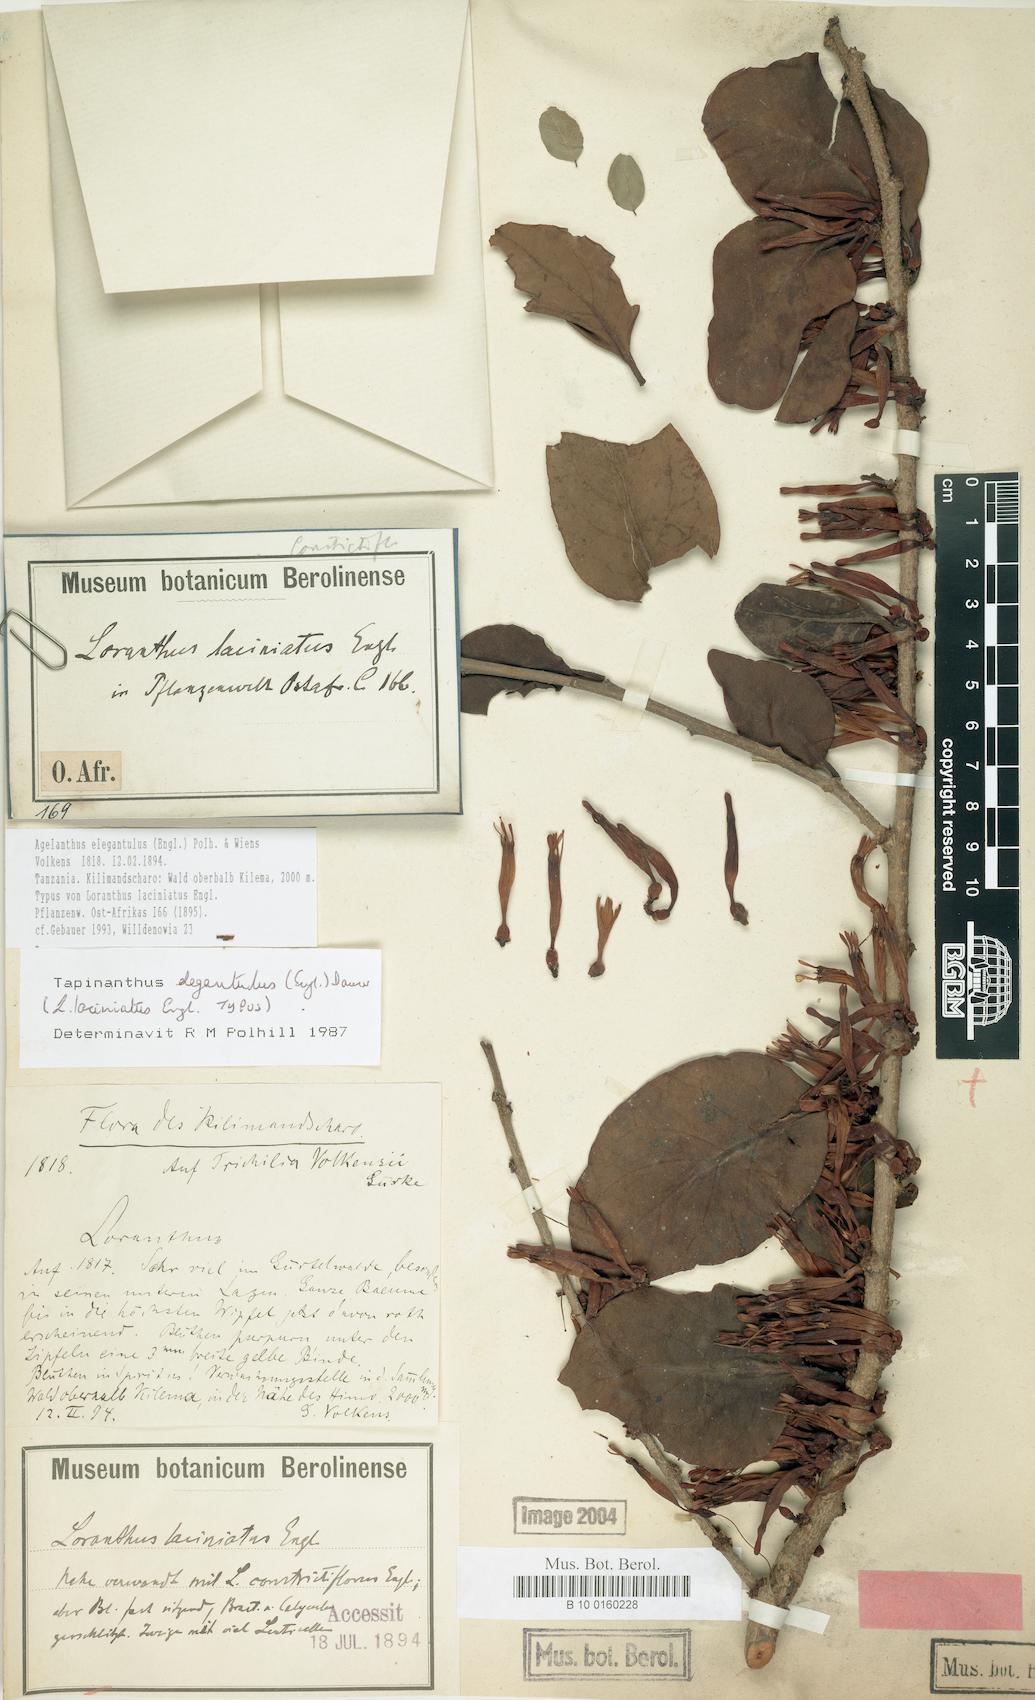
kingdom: Plantae
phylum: Tracheophyta
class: Magnoliopsida
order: Santalales
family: Loranthaceae
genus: Loranthella
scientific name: Loranthella kilimandscharica
